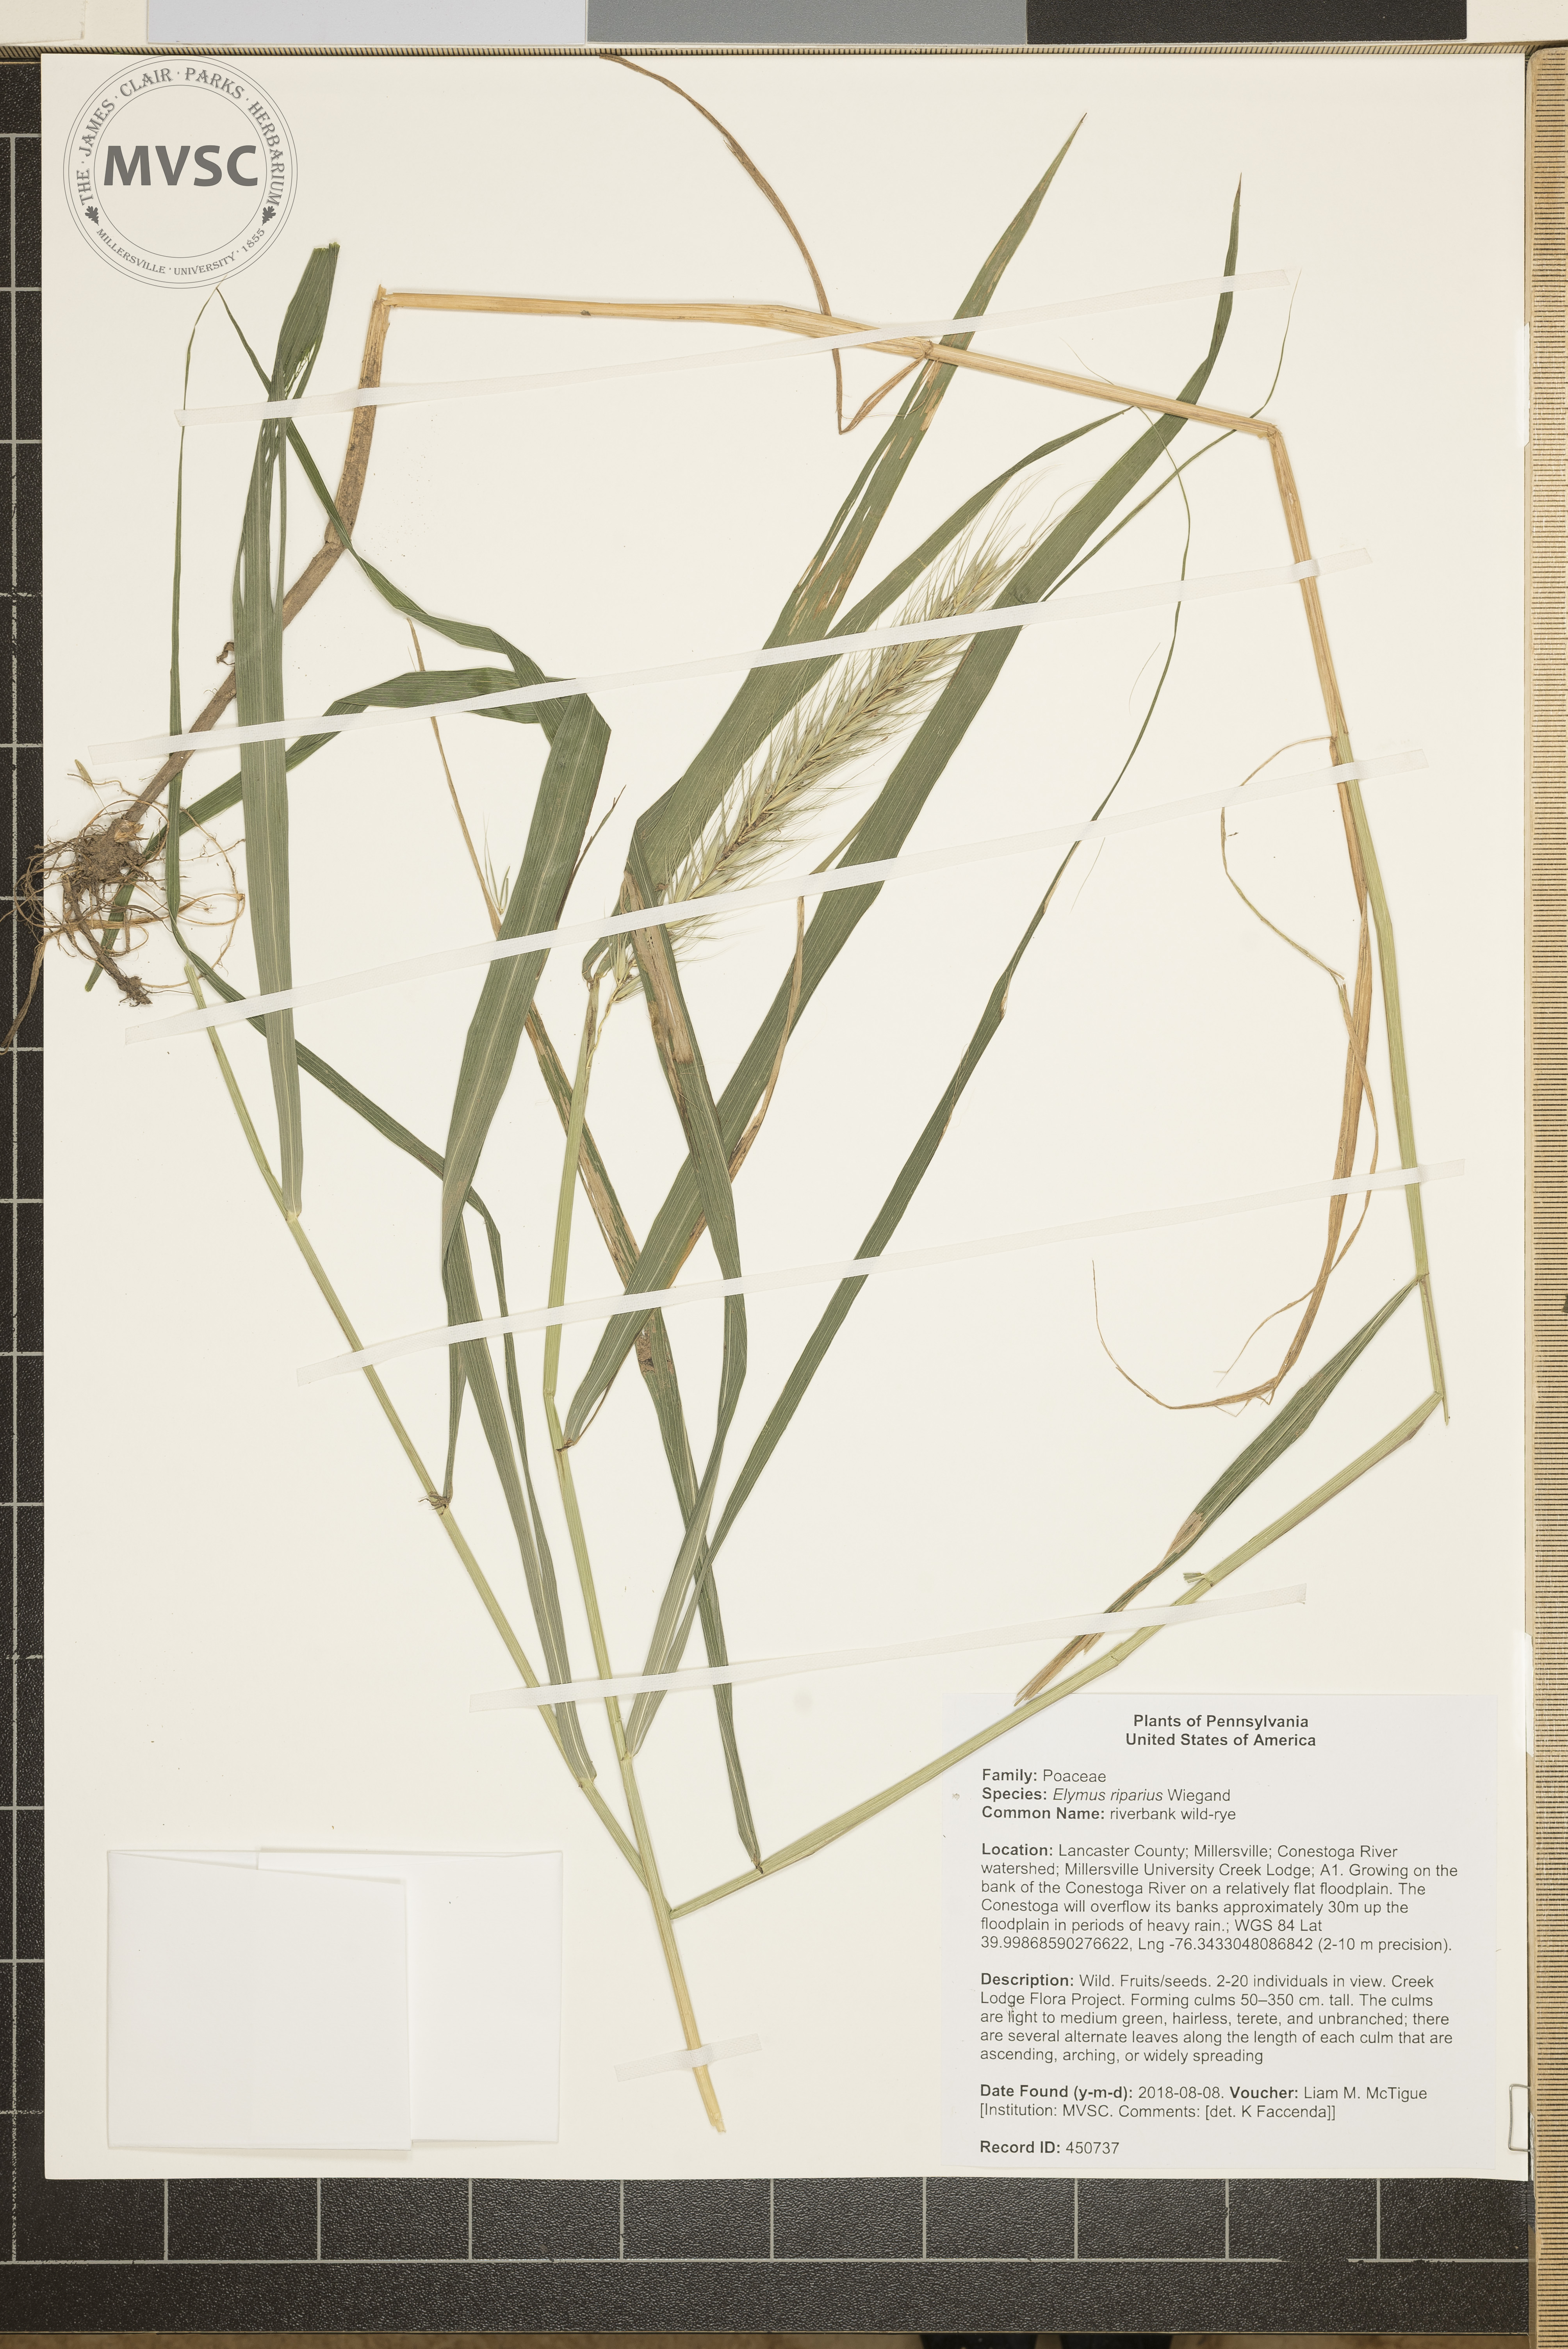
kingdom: Plantae
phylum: Tracheophyta
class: Liliopsida
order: Poales
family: Poaceae
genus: Elymus
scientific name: Elymus riparius
